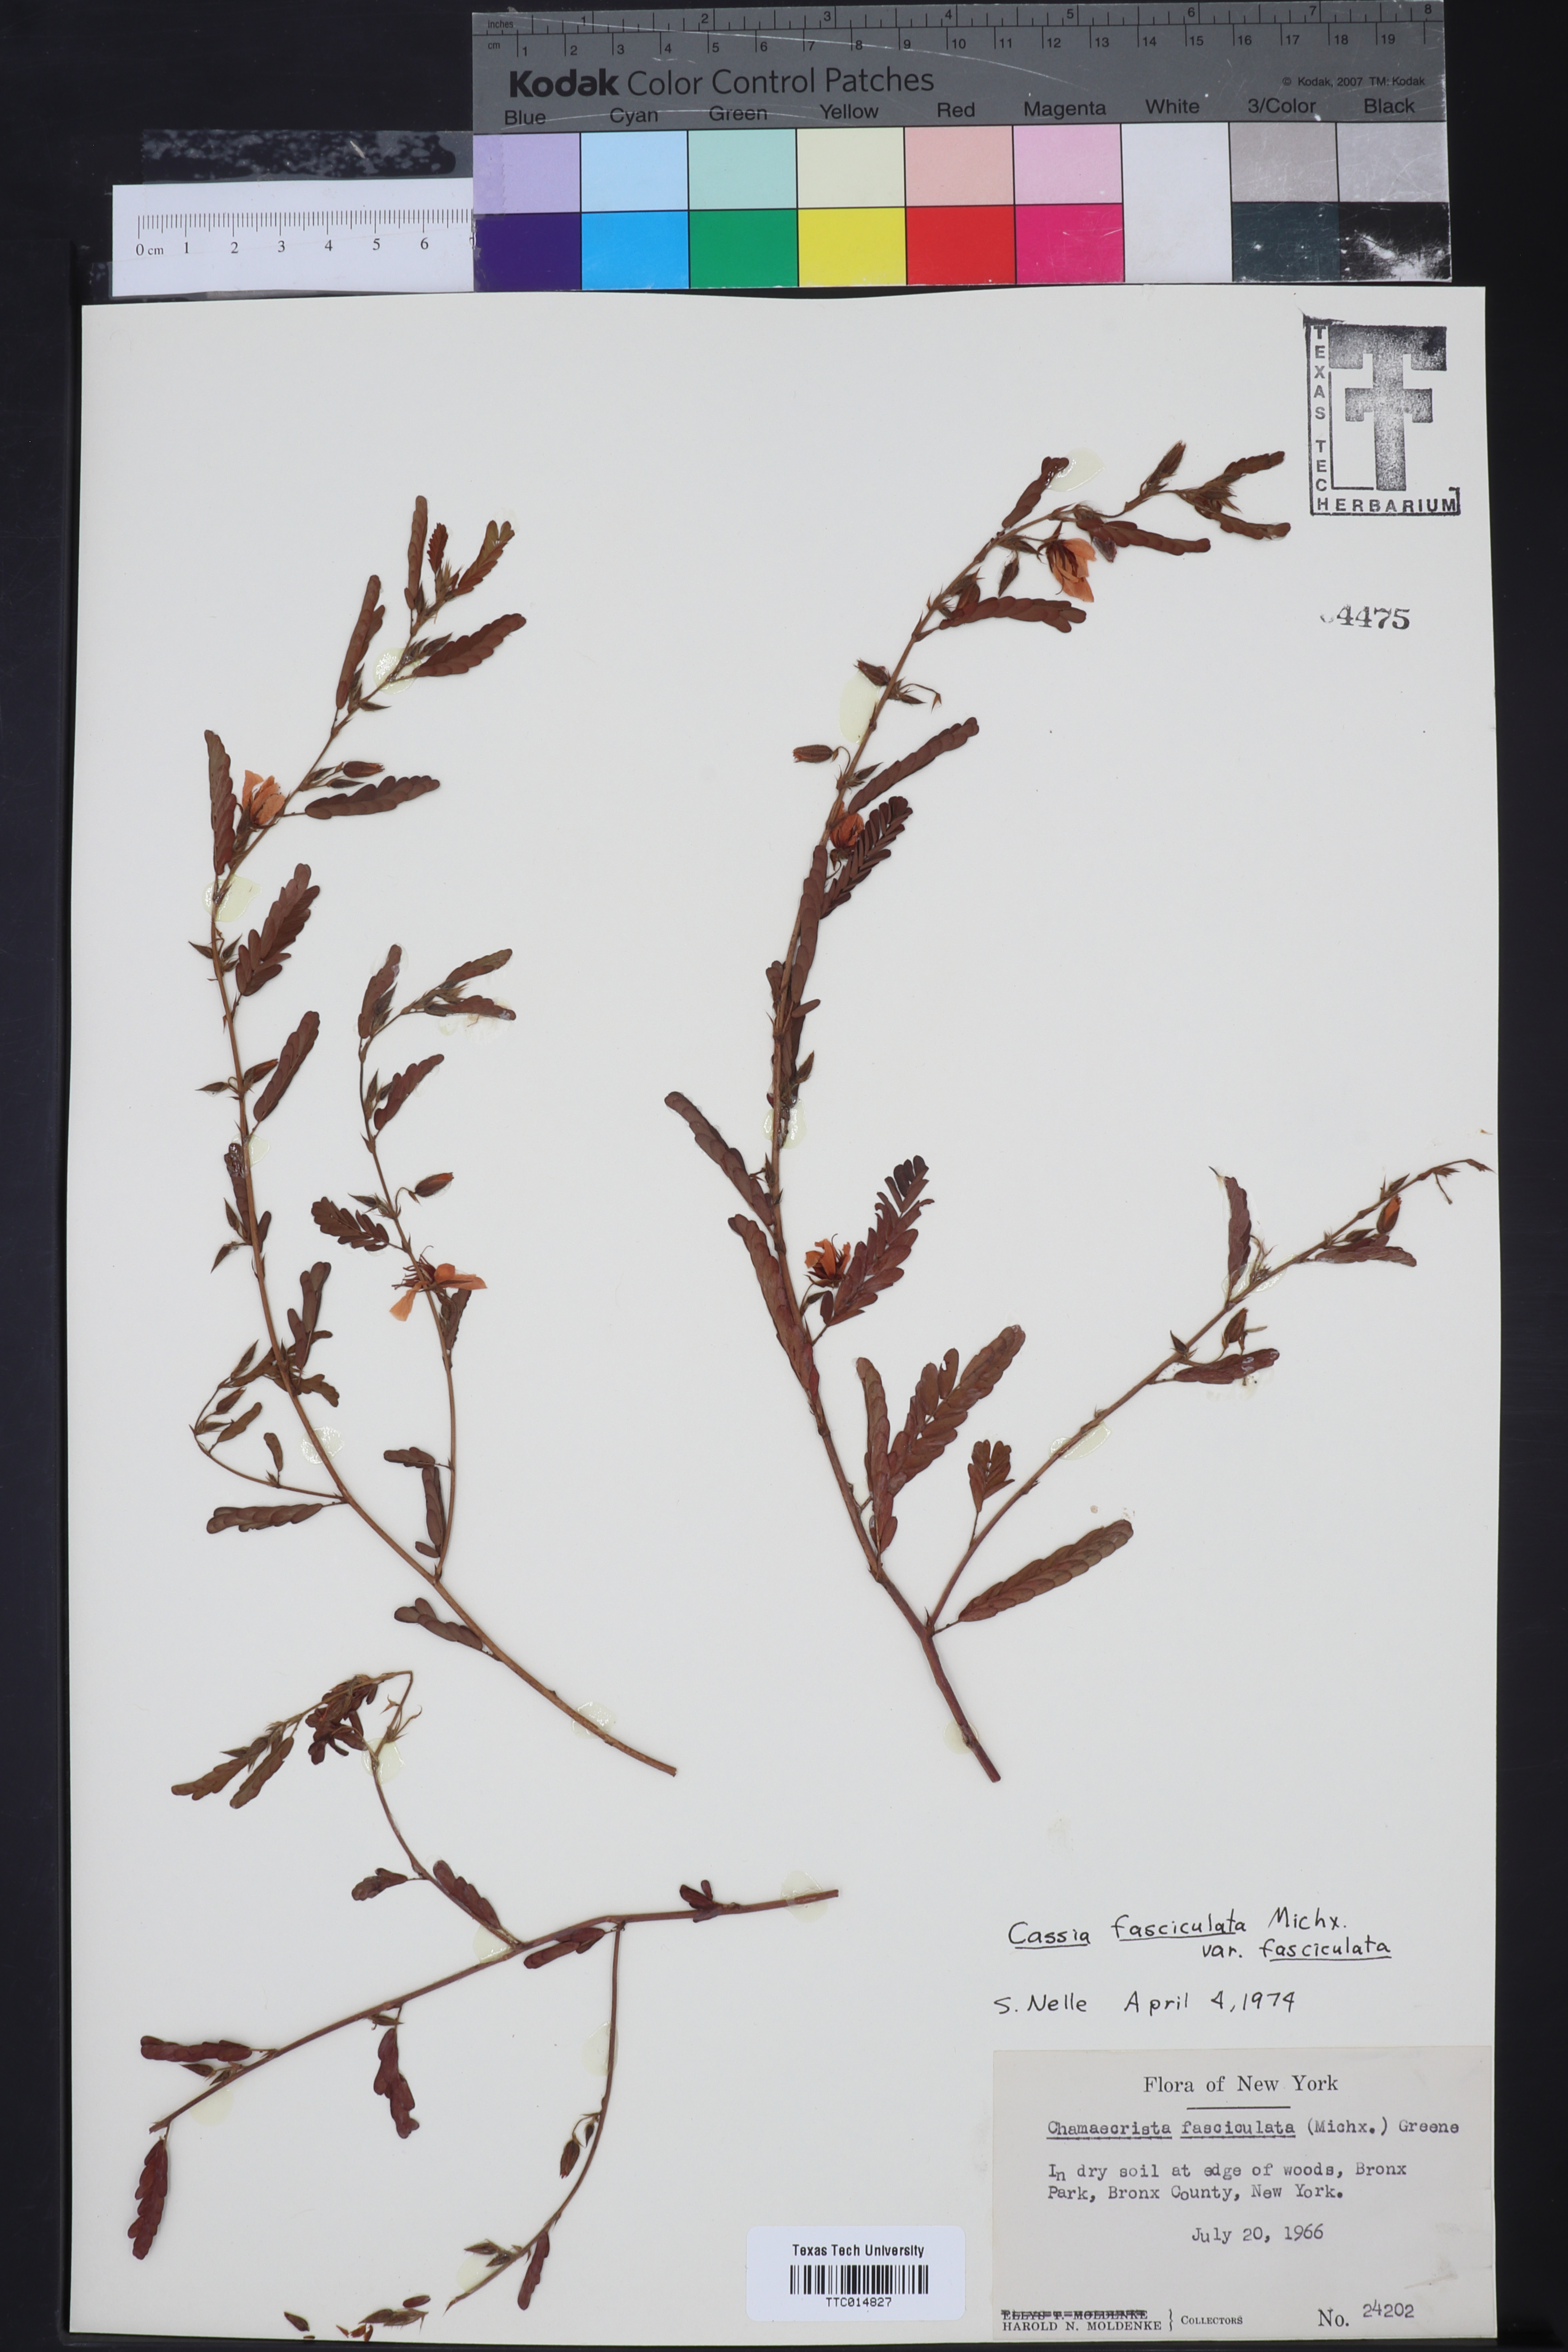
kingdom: Plantae
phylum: Tracheophyta
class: Magnoliopsida
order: Fabales
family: Fabaceae
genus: Chamaecrista
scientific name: Chamaecrista fasciculata
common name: Golden cassia
